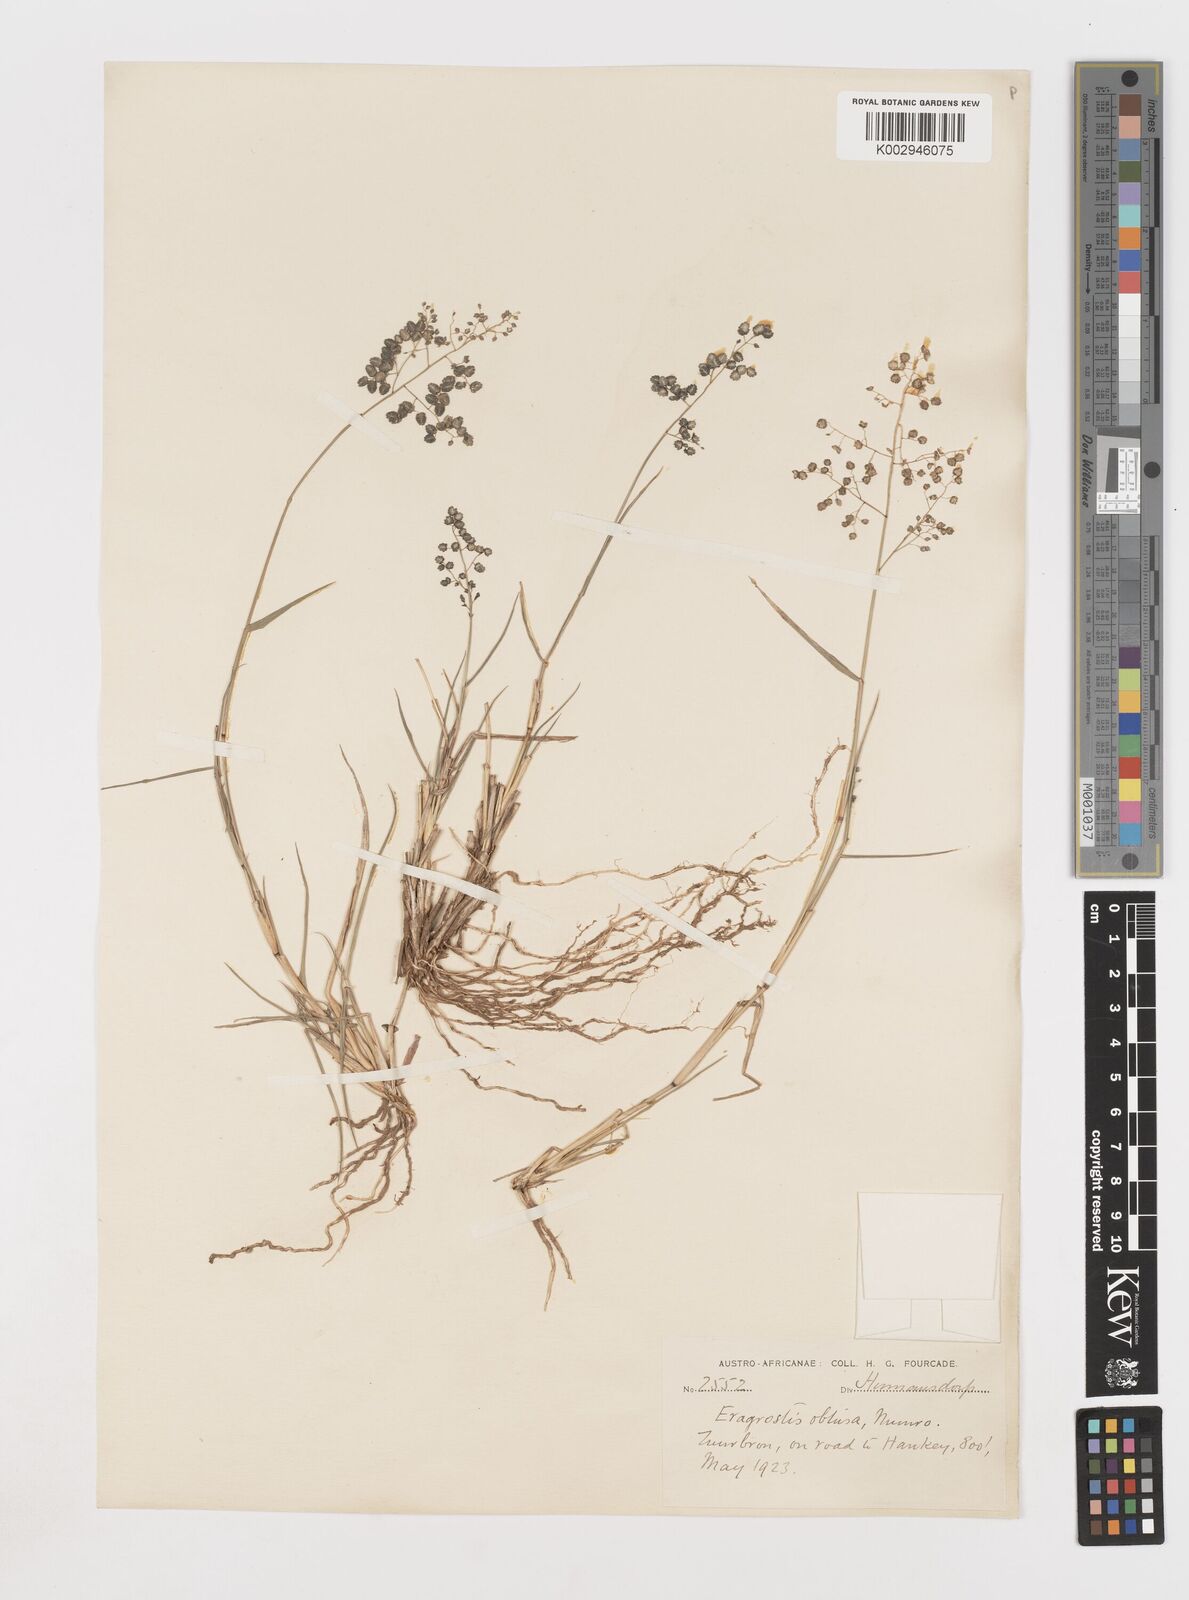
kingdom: Plantae
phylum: Tracheophyta
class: Liliopsida
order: Poales
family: Poaceae
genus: Eragrostis
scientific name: Eragrostis obtusa
